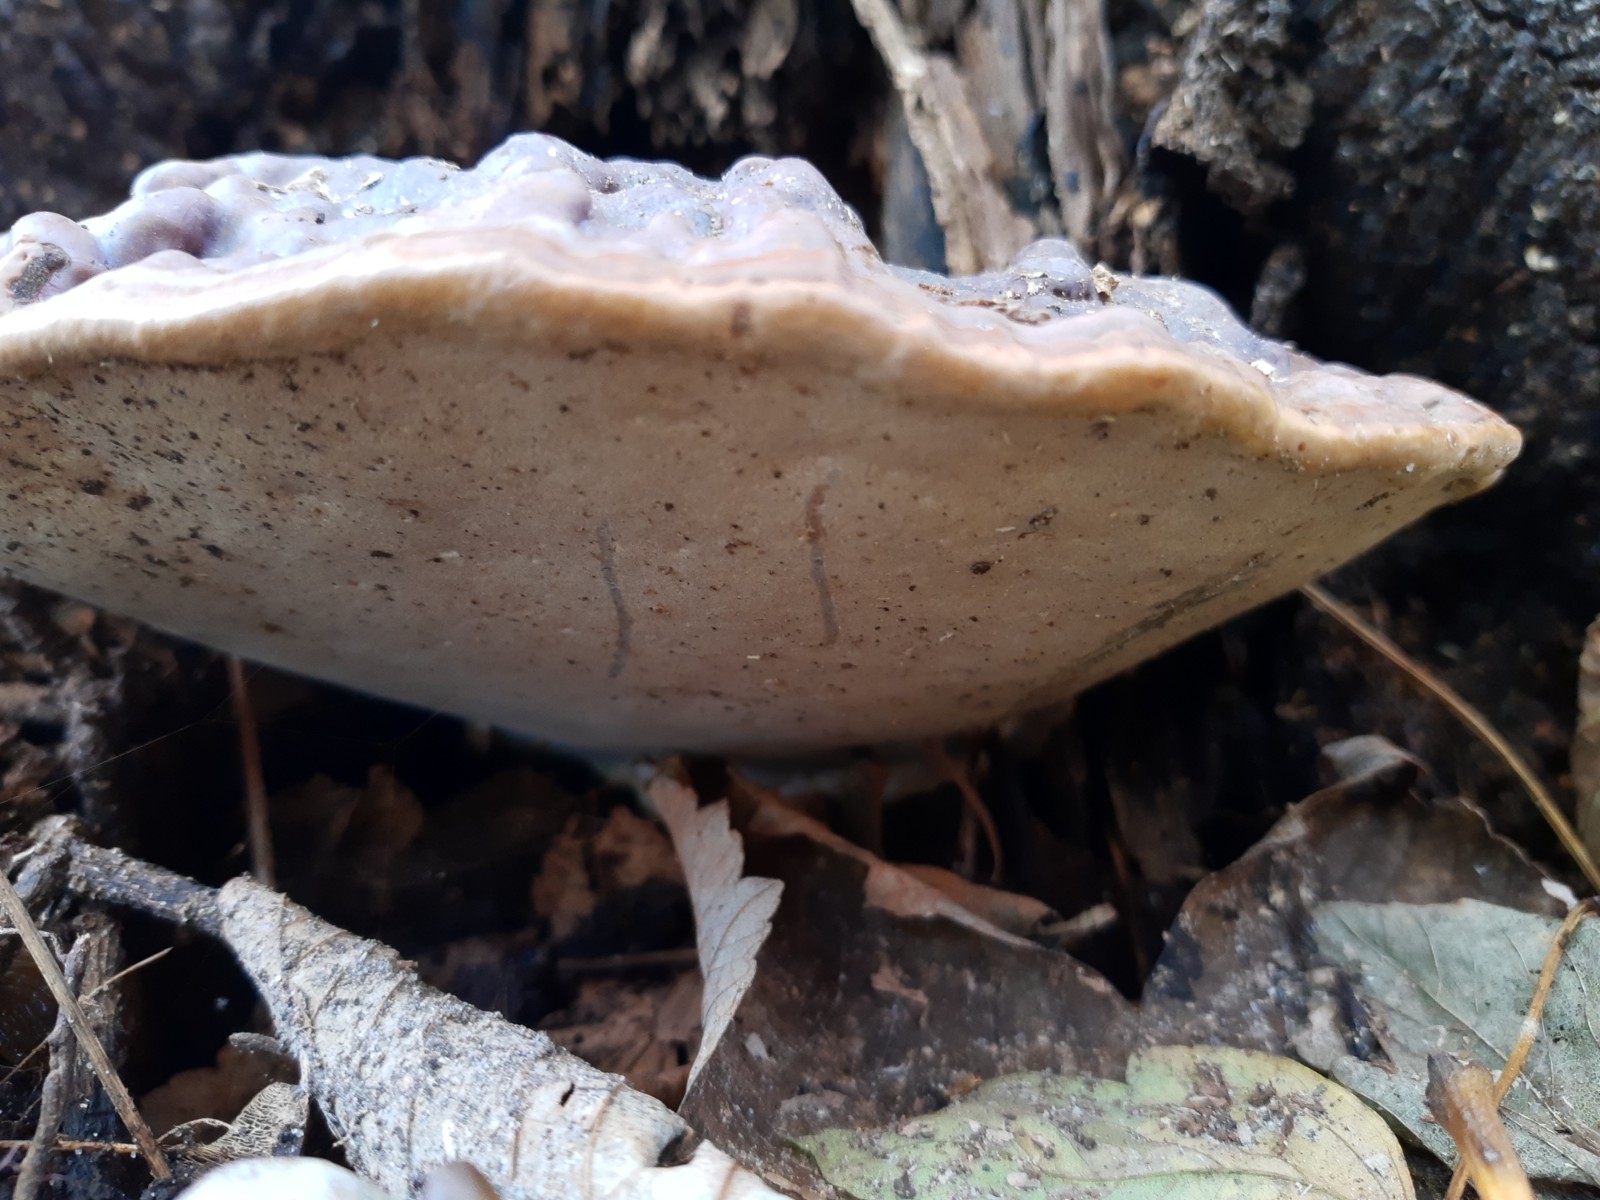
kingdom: Fungi
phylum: Basidiomycota
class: Agaricomycetes
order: Polyporales
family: Polyporaceae
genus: Ganoderma
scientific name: Ganoderma pfeifferi
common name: kobberrød lakporesvamp
